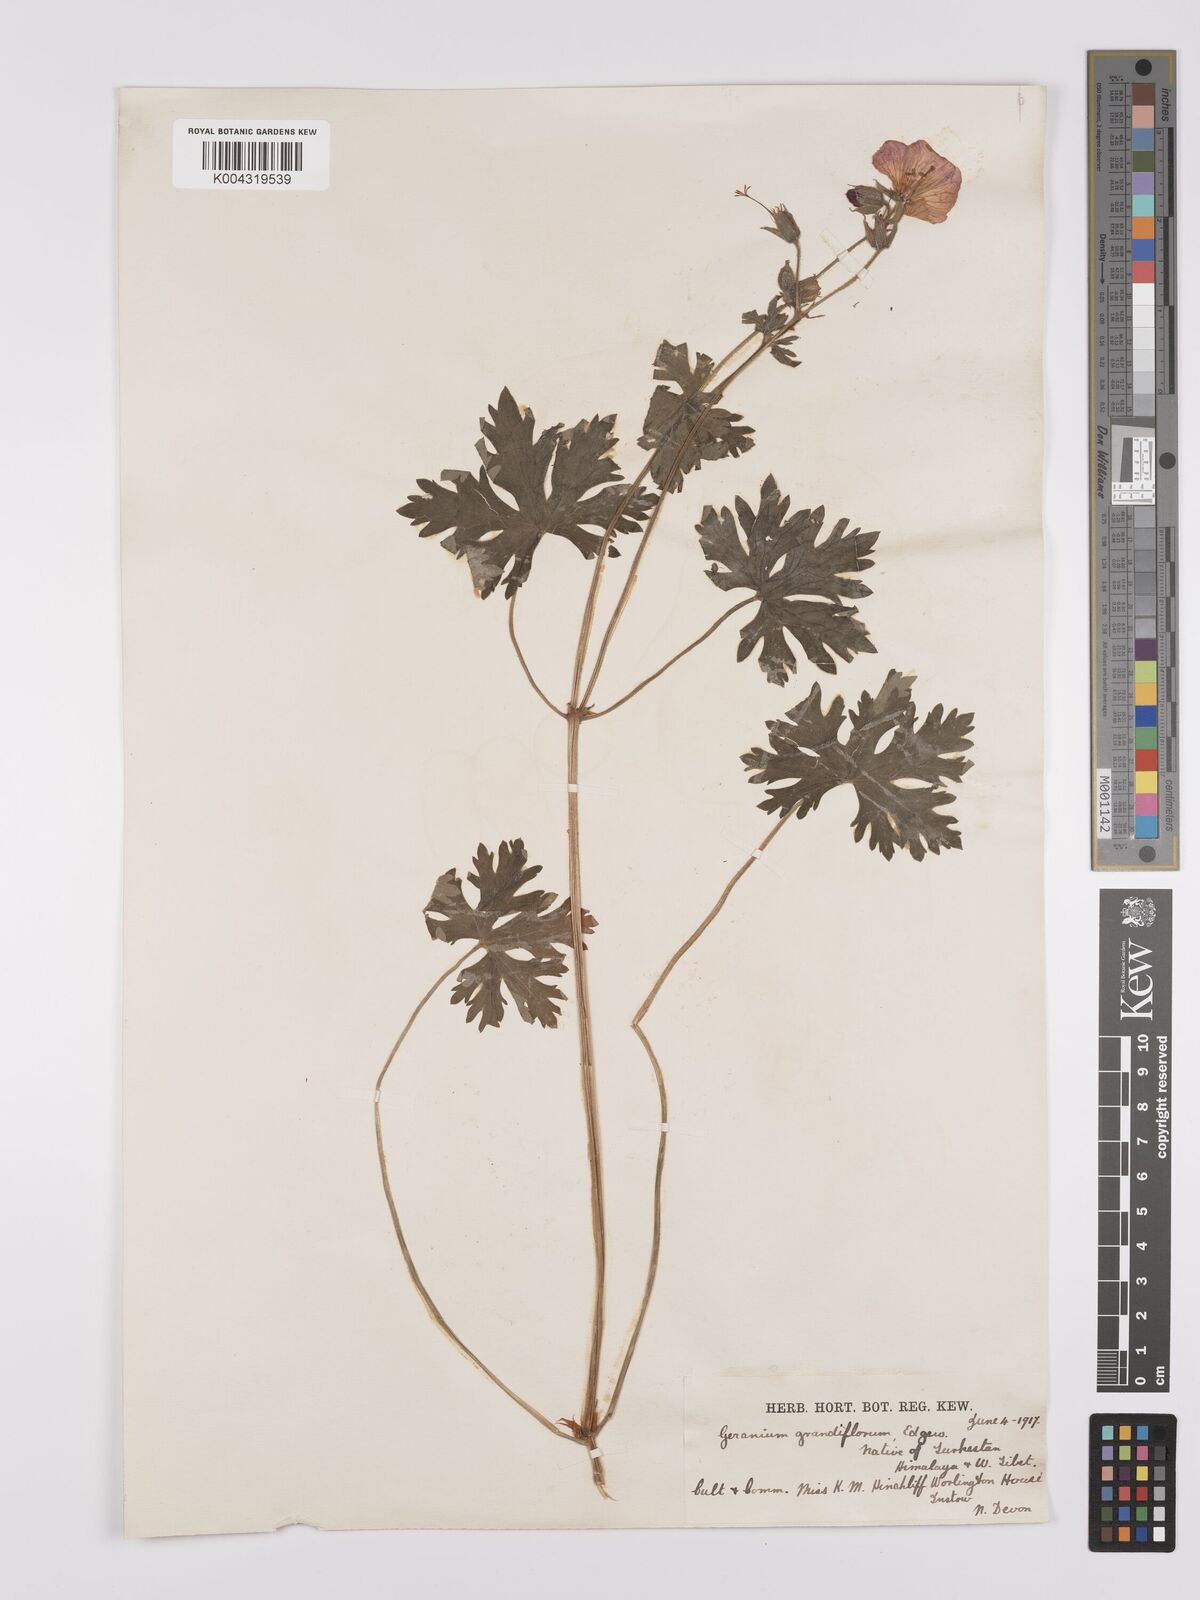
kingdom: Plantae
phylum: Tracheophyta
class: Magnoliopsida
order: Geraniales
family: Geraniaceae
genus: Geranium
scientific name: Geranium himalayense
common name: Himalayan crane's-bill
